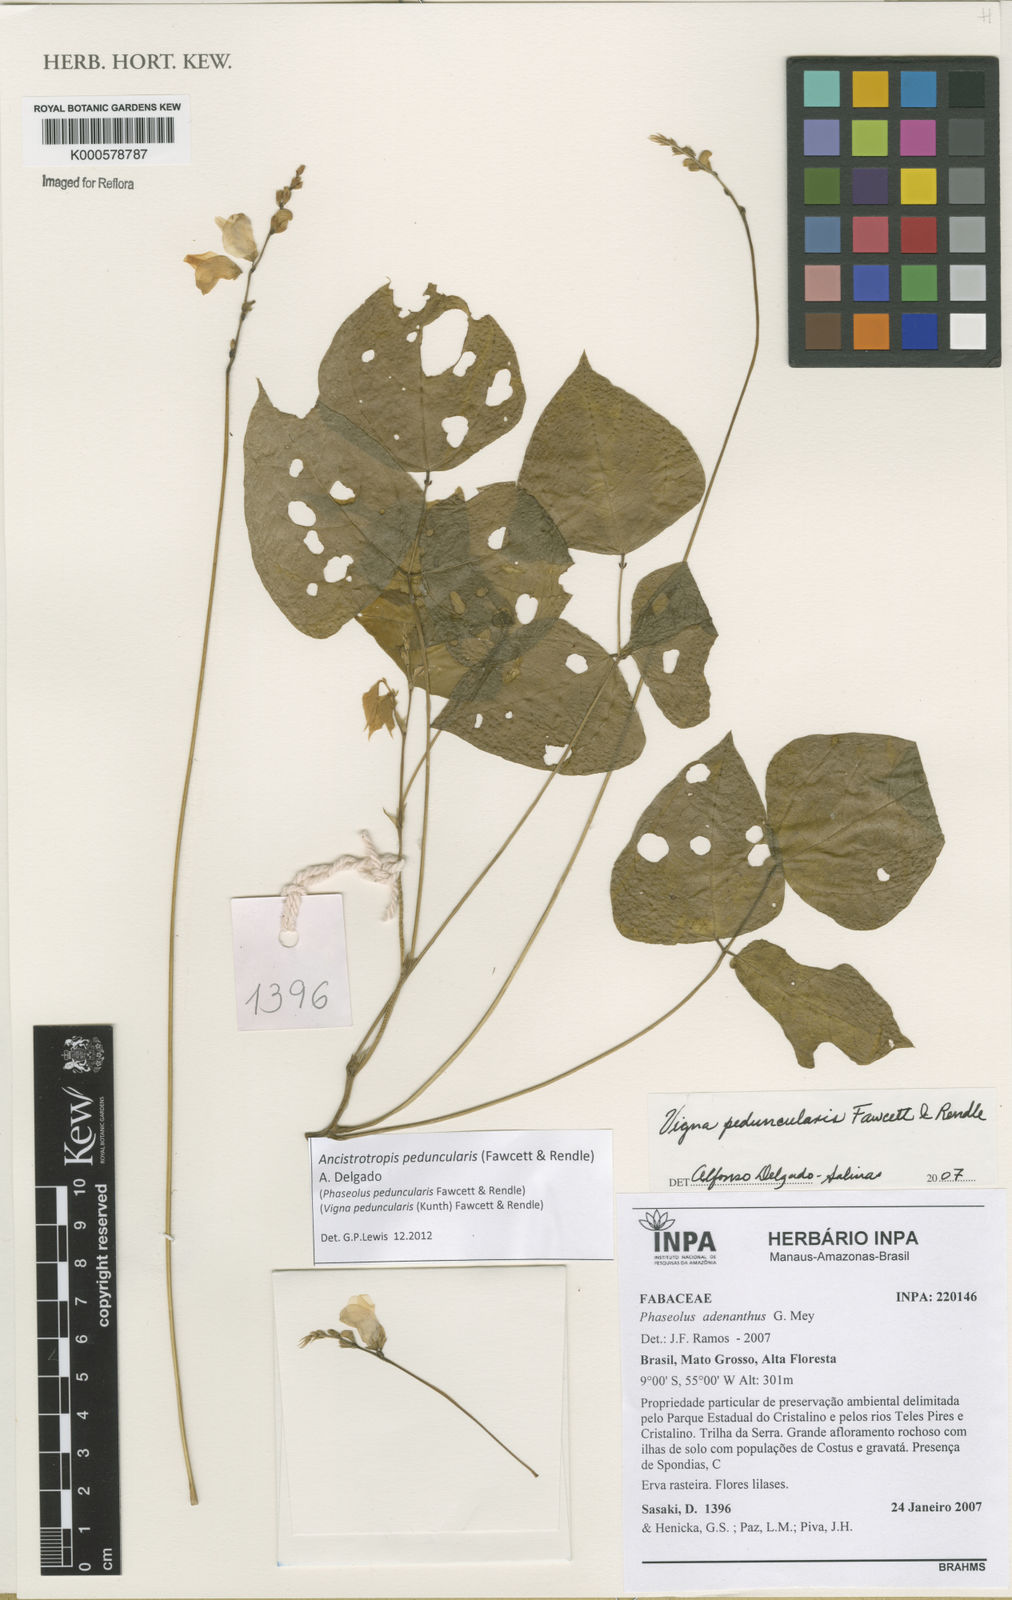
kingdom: Plantae
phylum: Tracheophyta
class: Magnoliopsida
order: Fabales
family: Fabaceae
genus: Ancistrotropis
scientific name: Ancistrotropis peduncularis
